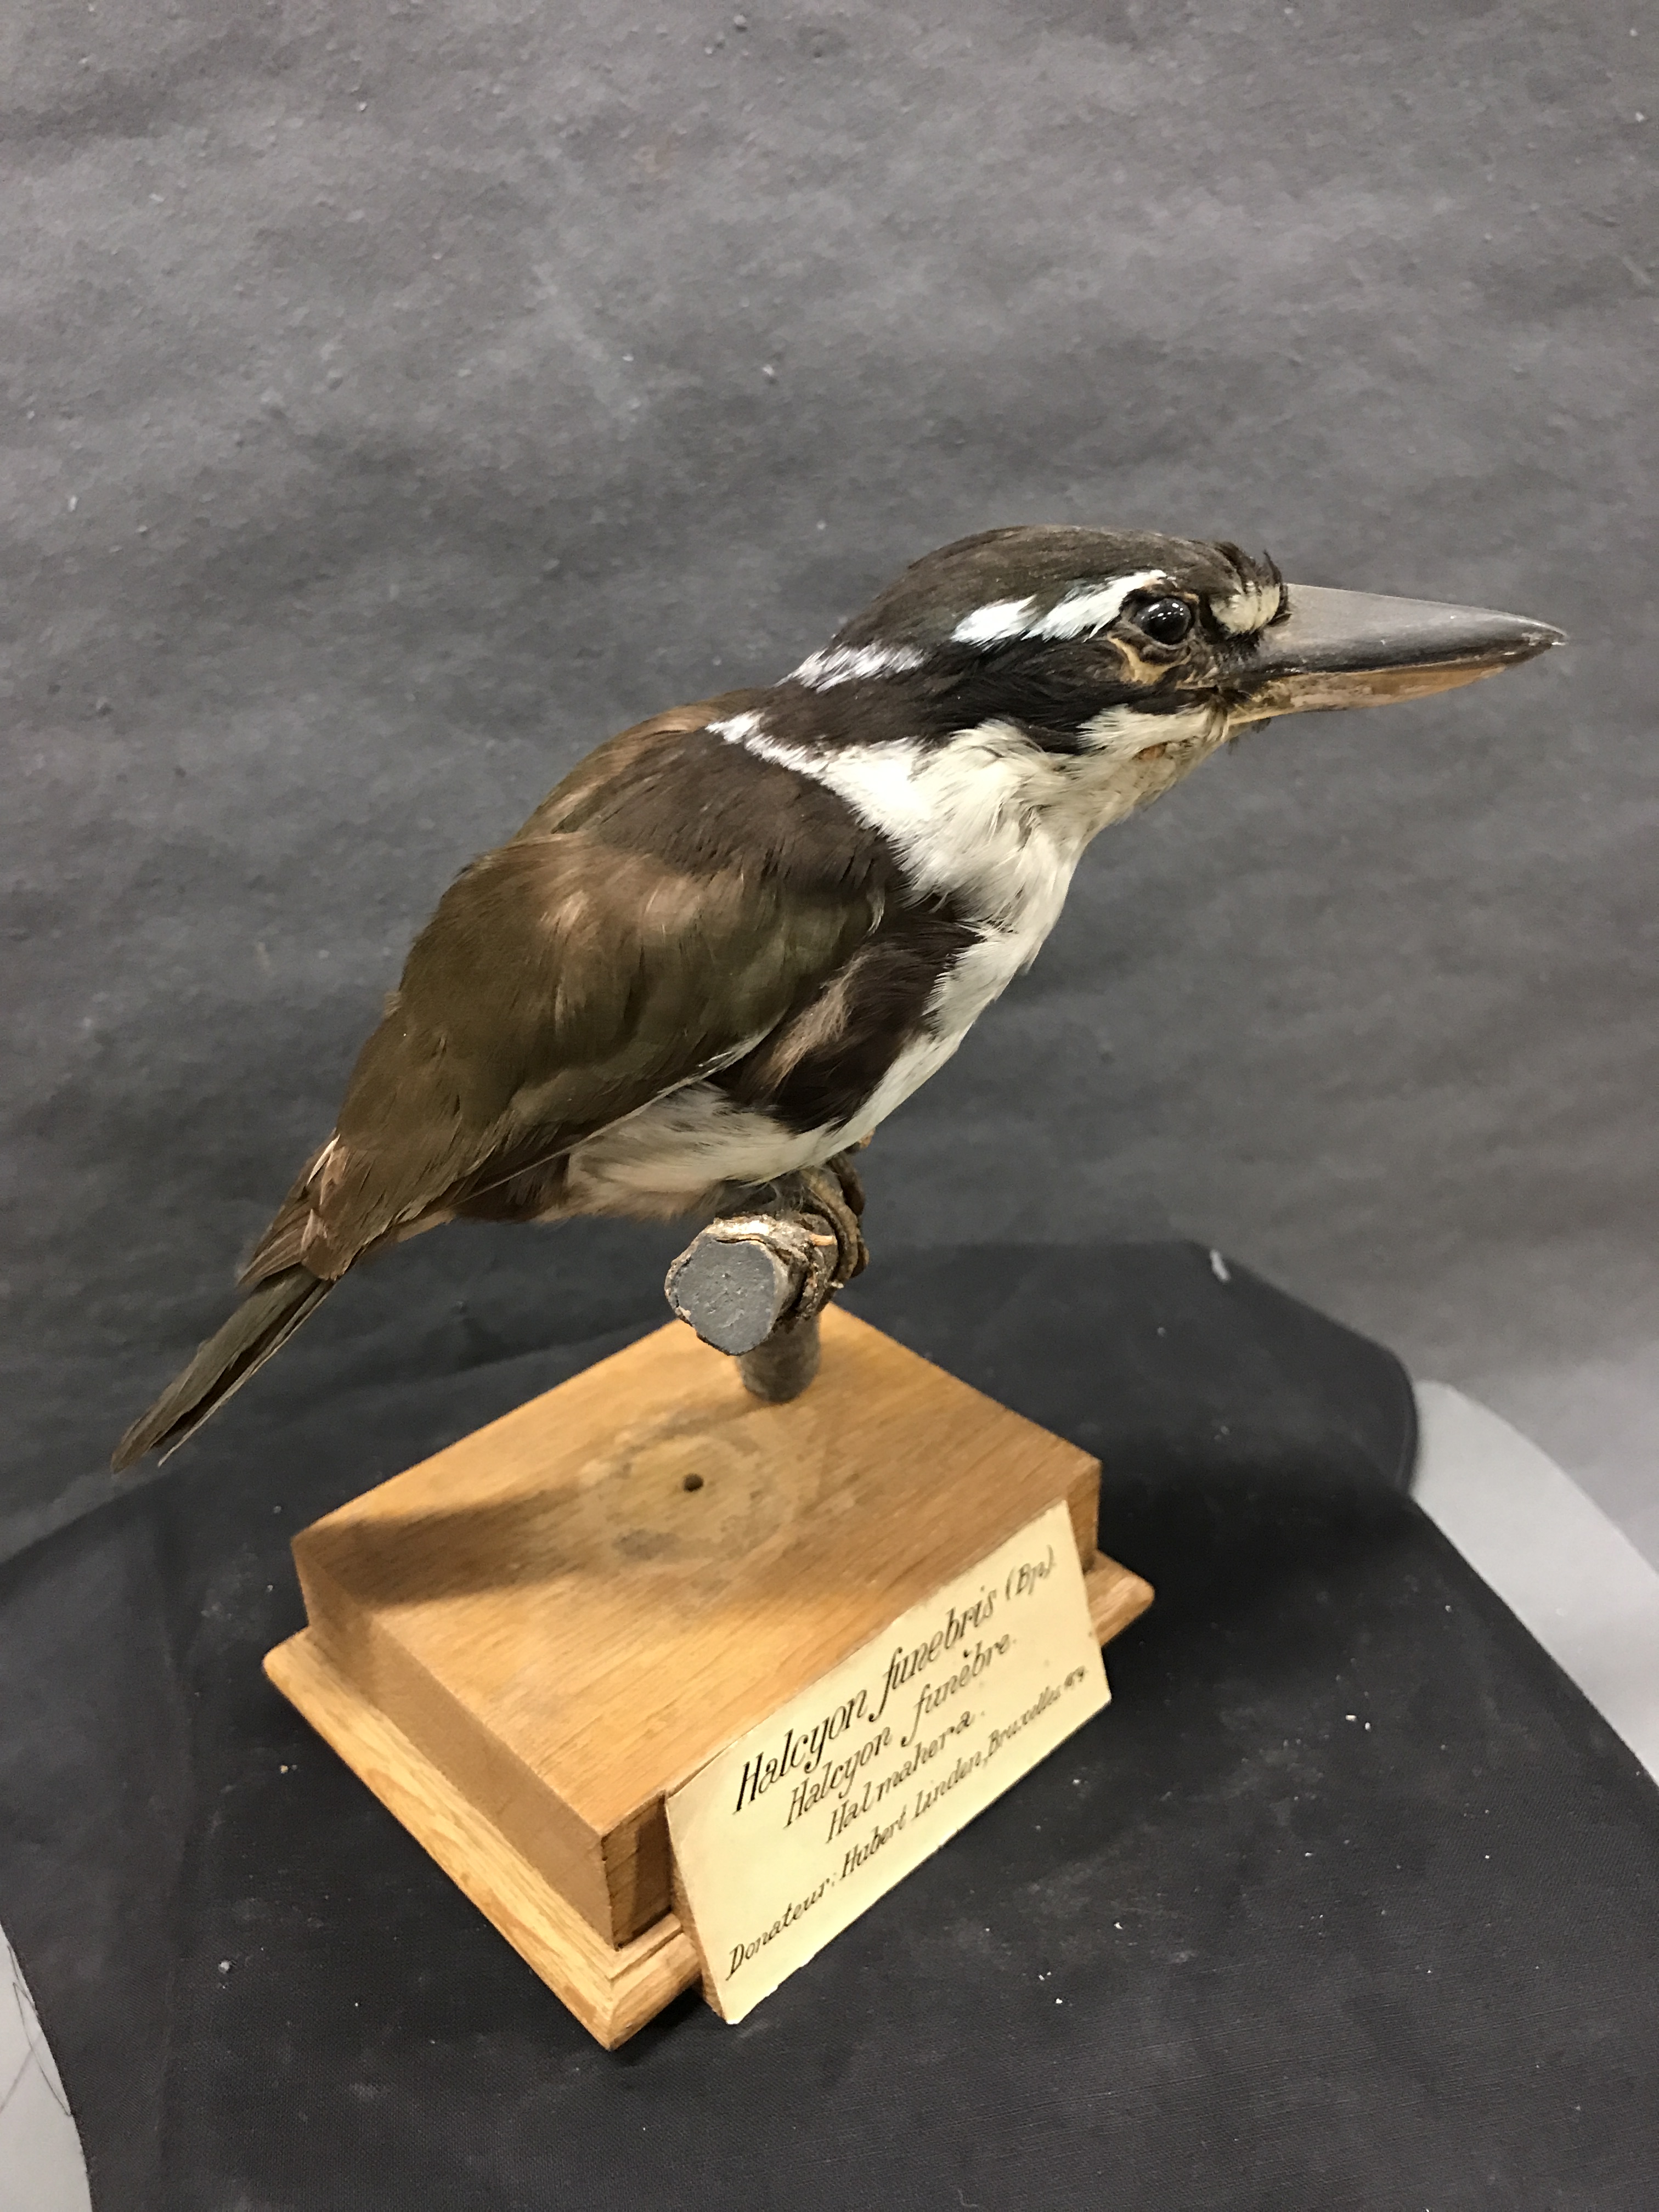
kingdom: Animalia
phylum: Chordata
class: Aves
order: Coraciiformes
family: Alcedinidae
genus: Todiramphus
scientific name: Todiramphus funebris
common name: Sombre kingfisher
